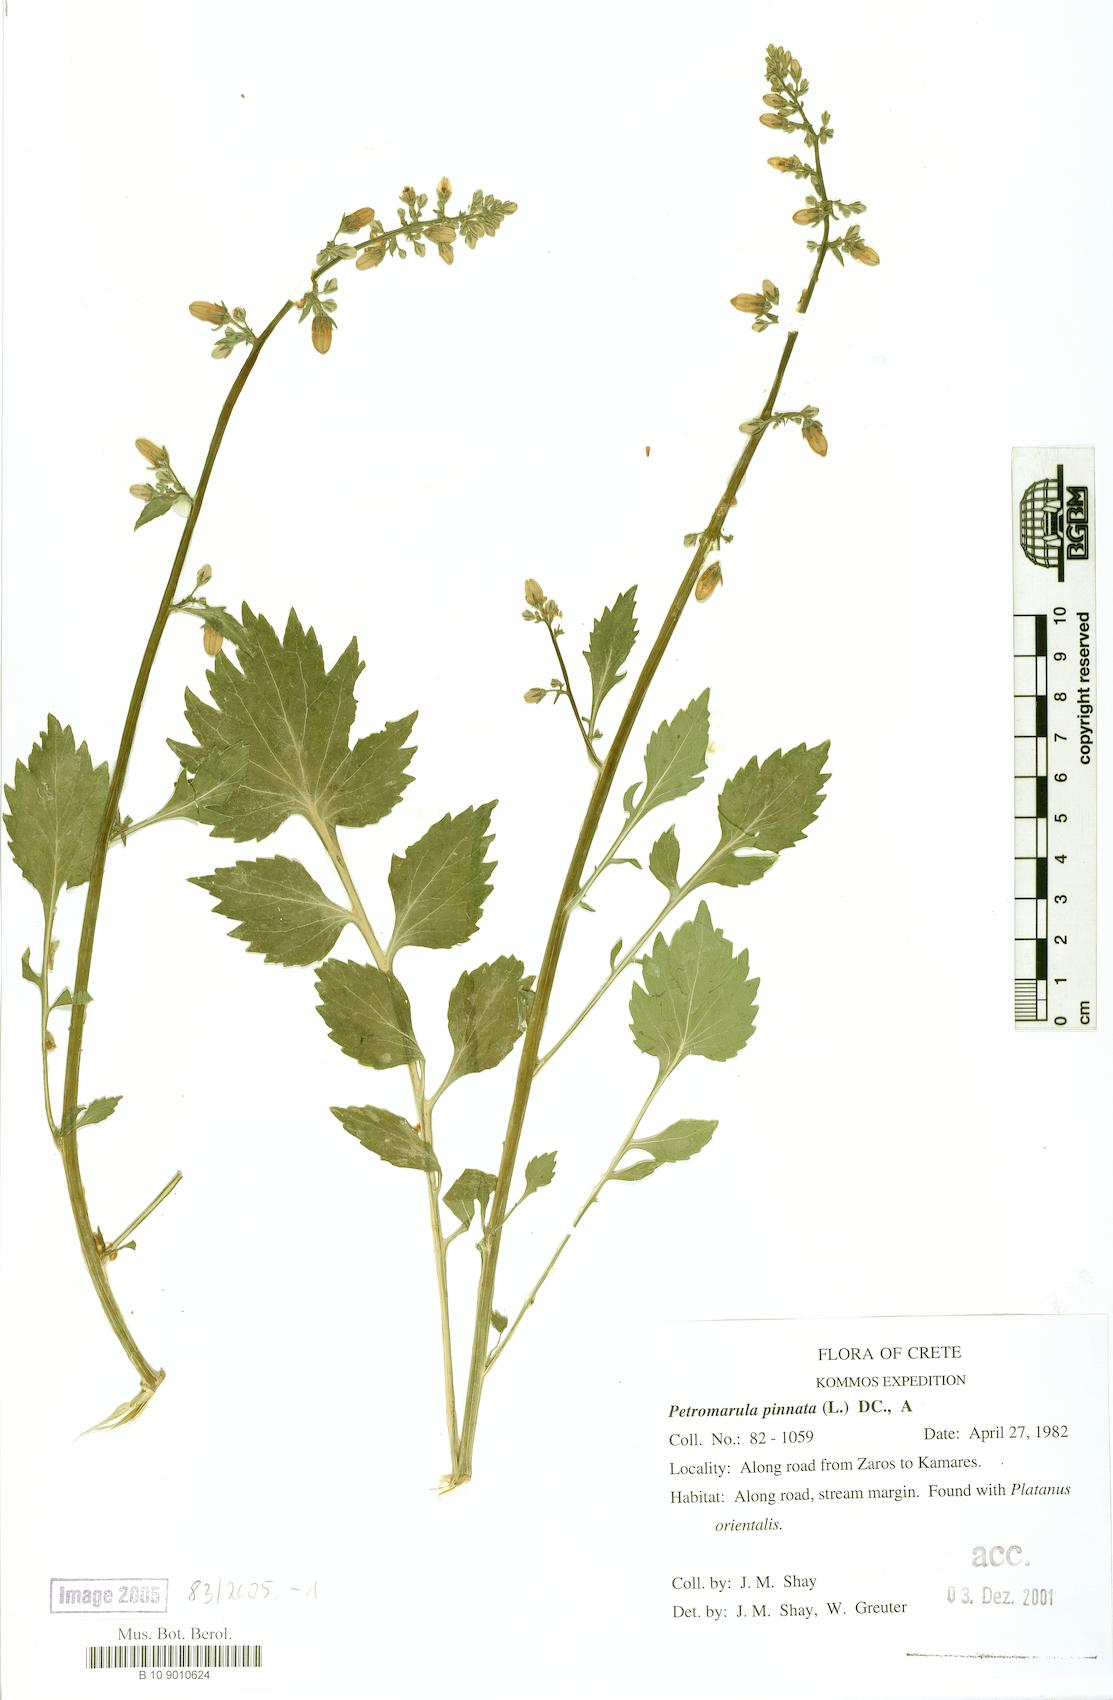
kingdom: Plantae
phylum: Tracheophyta
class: Magnoliopsida
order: Asterales
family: Campanulaceae
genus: Petromarula
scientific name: Petromarula pinnata
